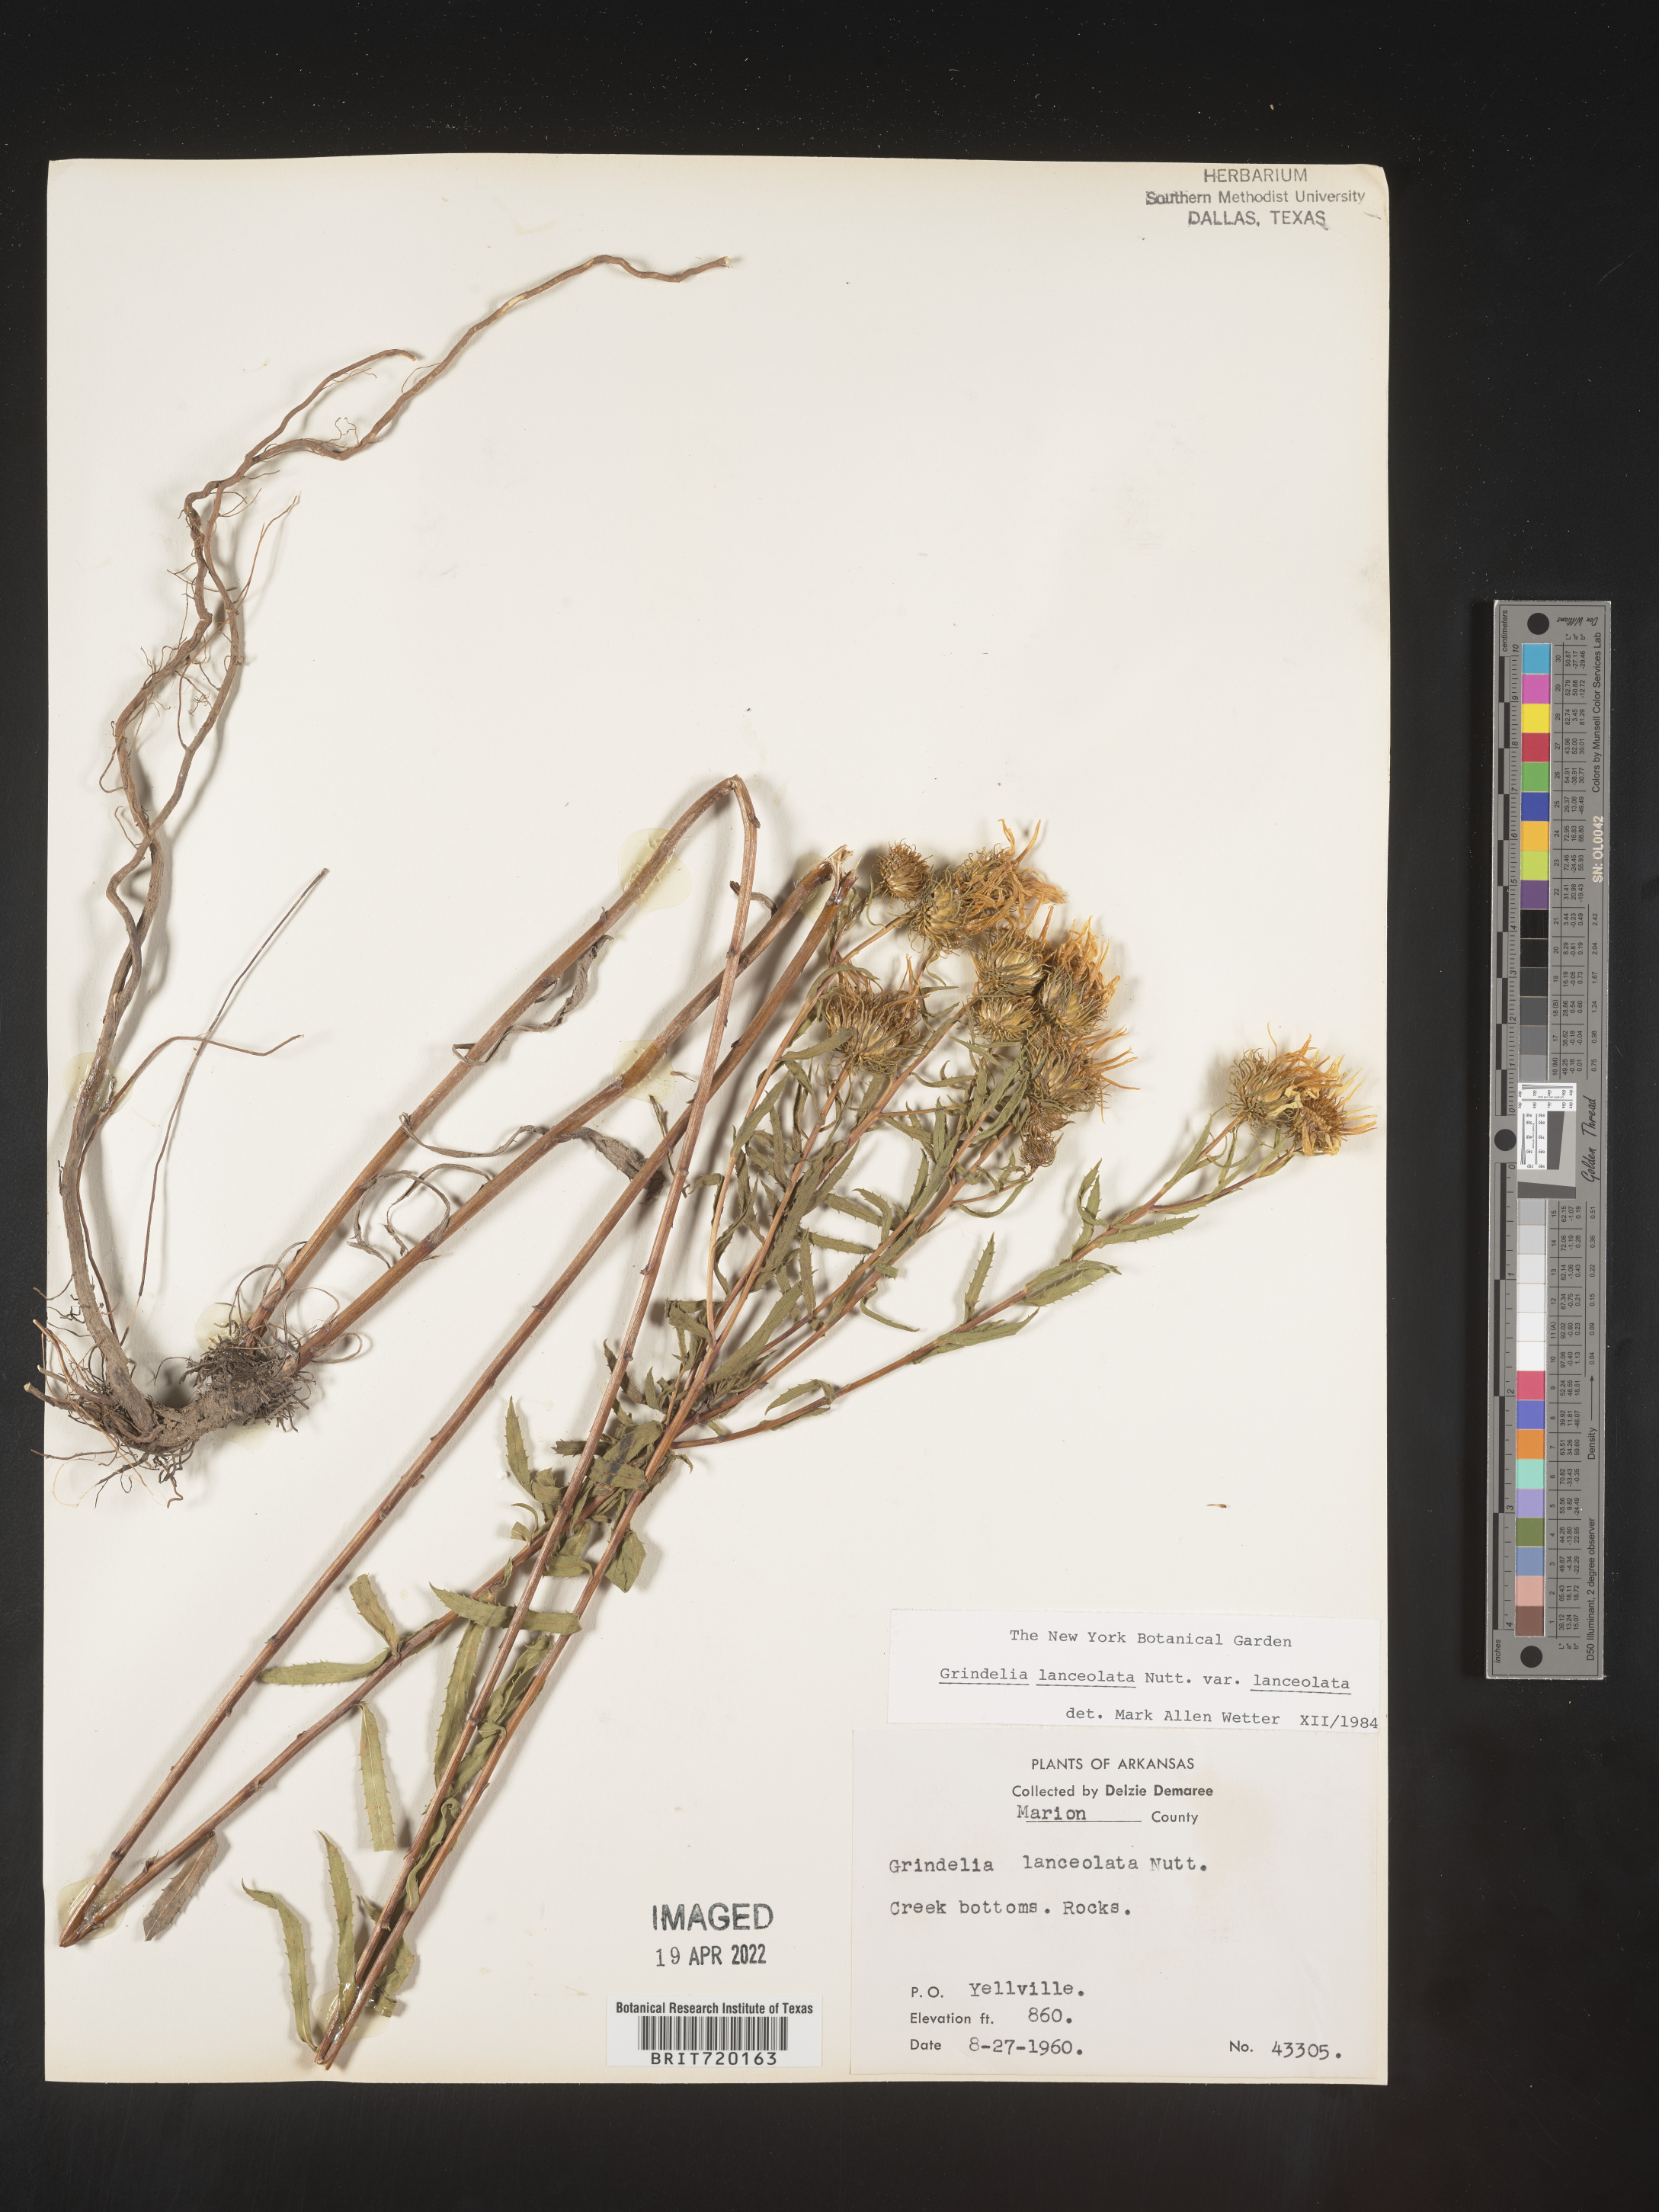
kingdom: Plantae
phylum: Tracheophyta
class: Magnoliopsida
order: Asterales
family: Asteraceae
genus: Grindelia
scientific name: Grindelia lanceolata
